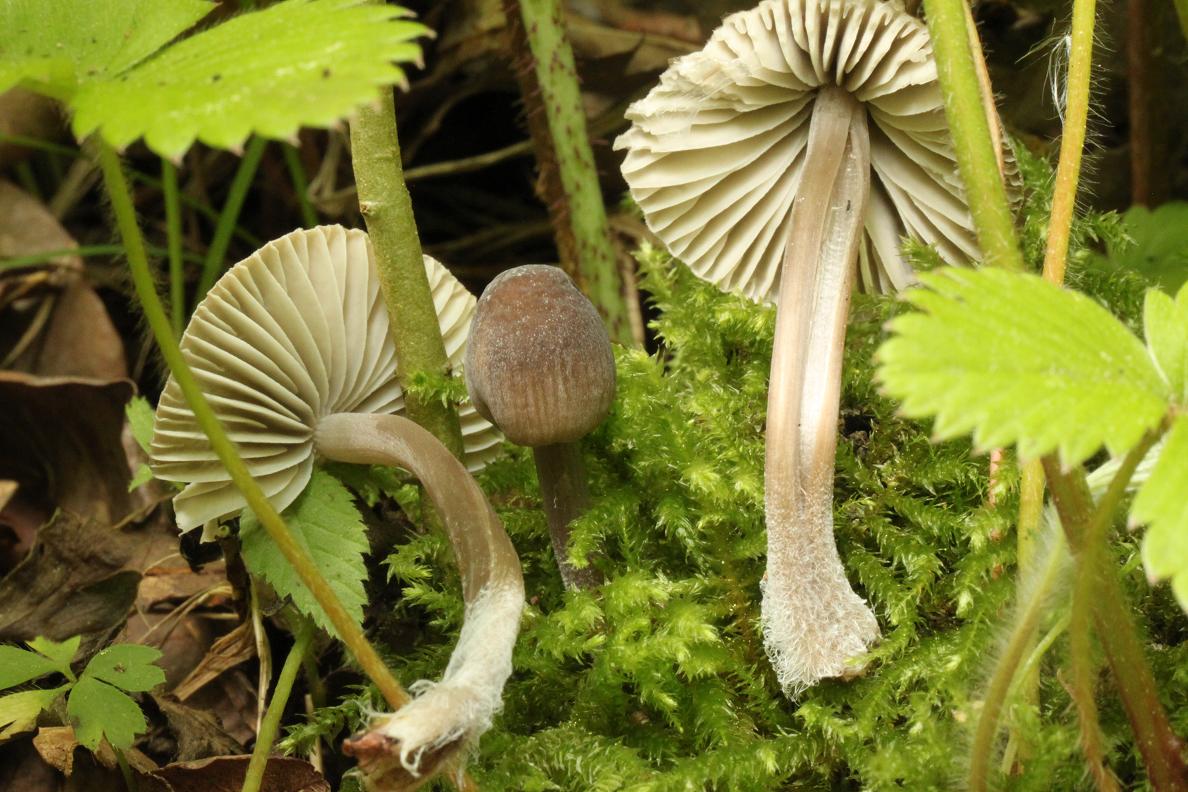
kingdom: Fungi
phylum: Basidiomycota
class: Agaricomycetes
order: Agaricales
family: Mycenaceae
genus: Mycena
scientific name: Mycena abramsii
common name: sommer-huesvamp
